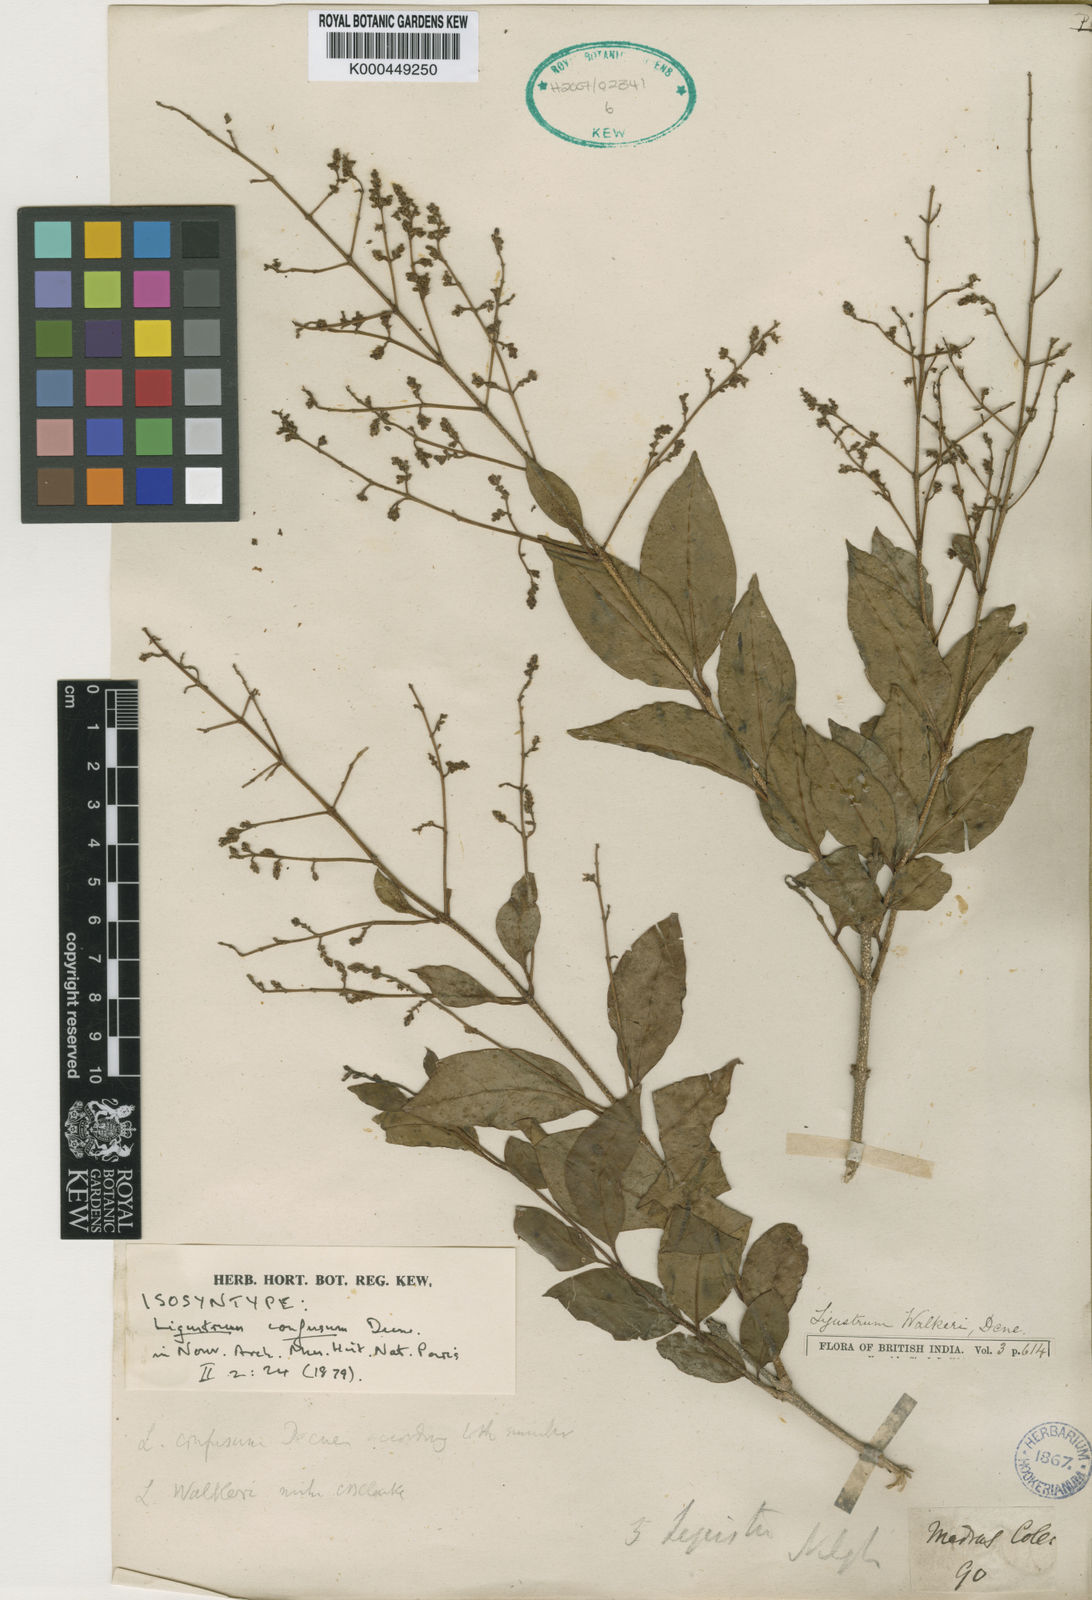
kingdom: Plantae
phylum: Tracheophyta
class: Magnoliopsida
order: Lamiales
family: Oleaceae
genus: Ligustrum
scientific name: Ligustrum confusum
